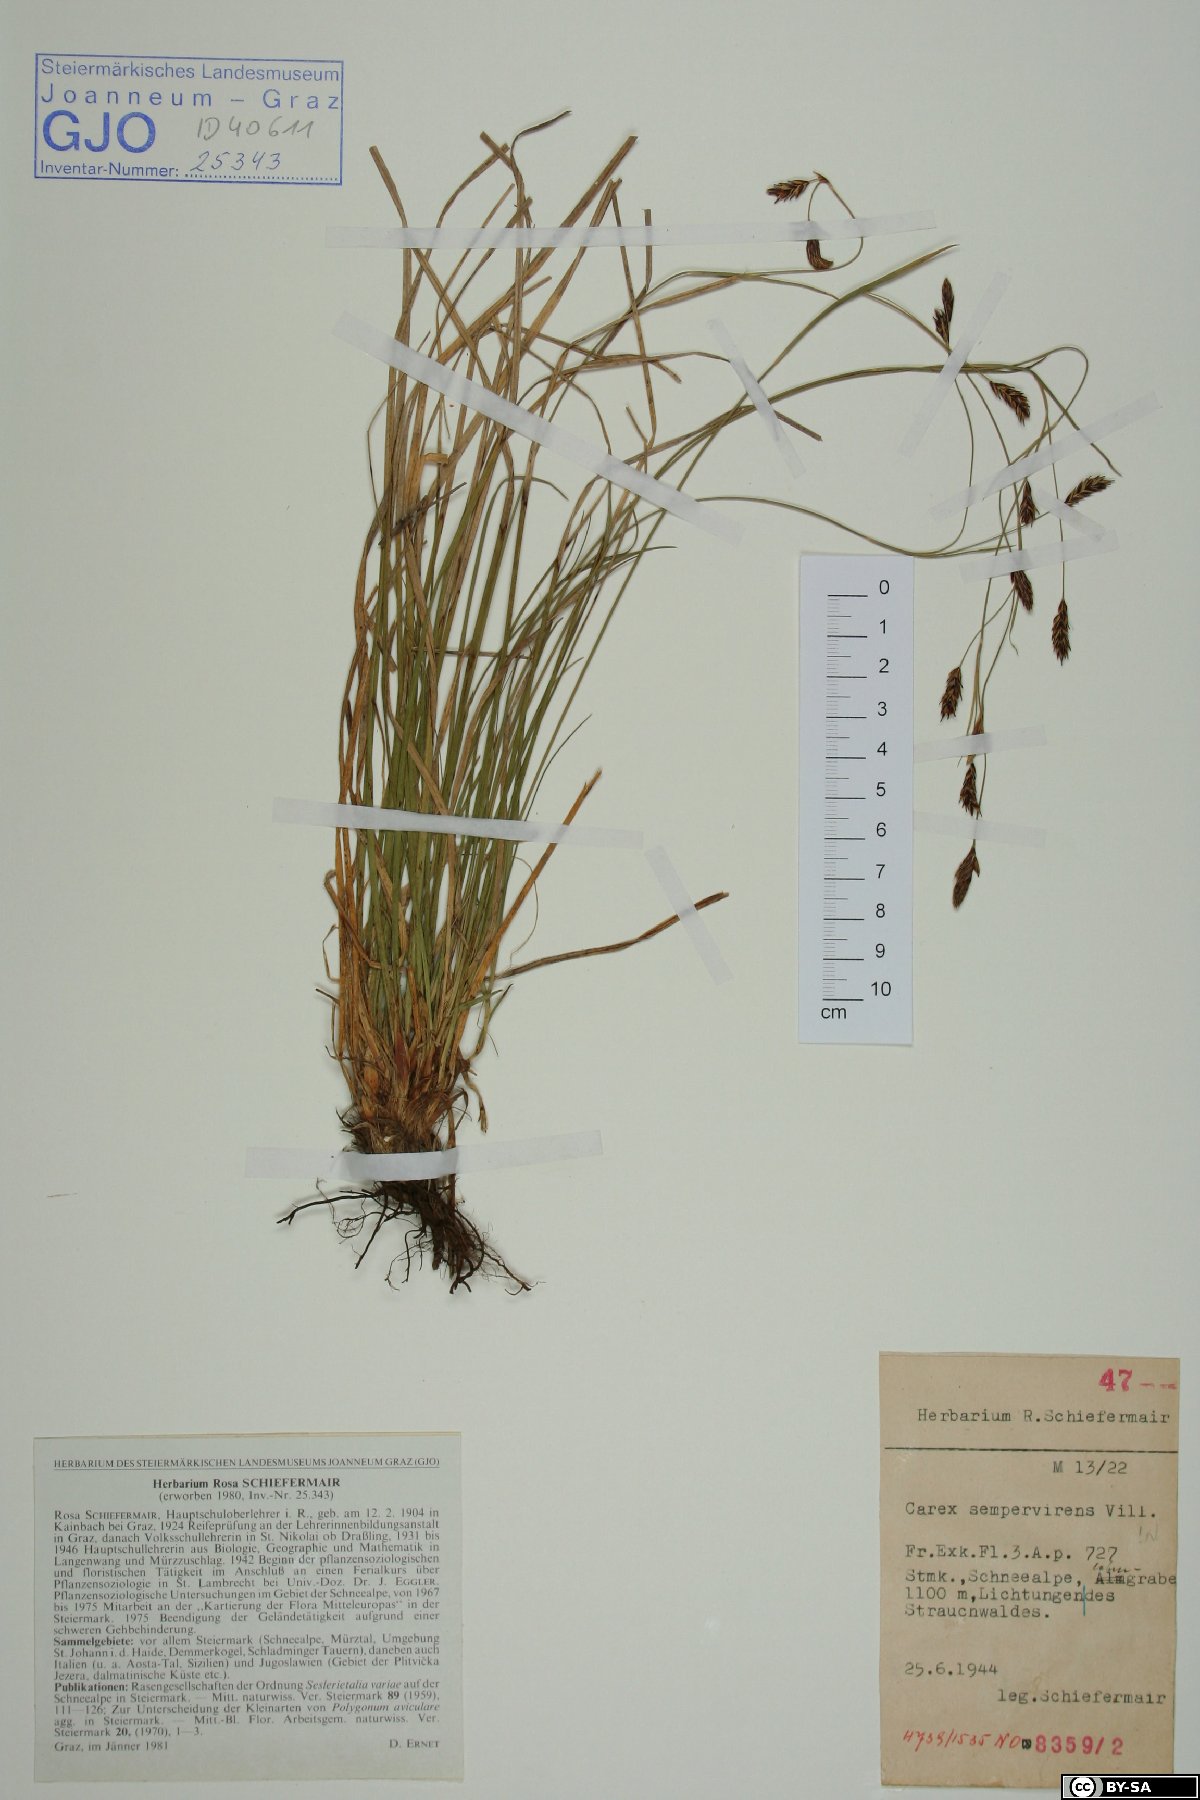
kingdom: Plantae
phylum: Tracheophyta
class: Liliopsida
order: Poales
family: Cyperaceae
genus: Carex
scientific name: Carex sempervirens
